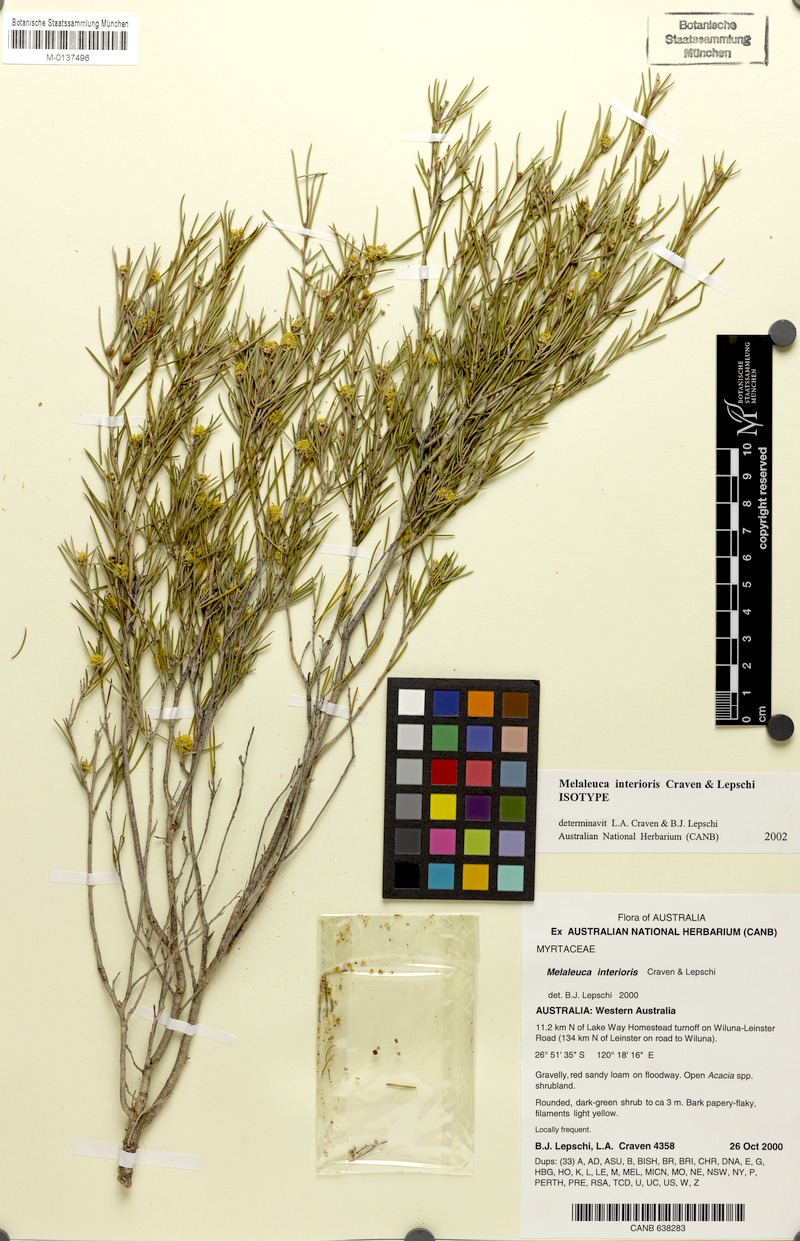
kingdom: Plantae
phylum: Tracheophyta
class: Magnoliopsida
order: Myrtales
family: Myrtaceae
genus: Melaleuca
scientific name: Melaleuca interioris
